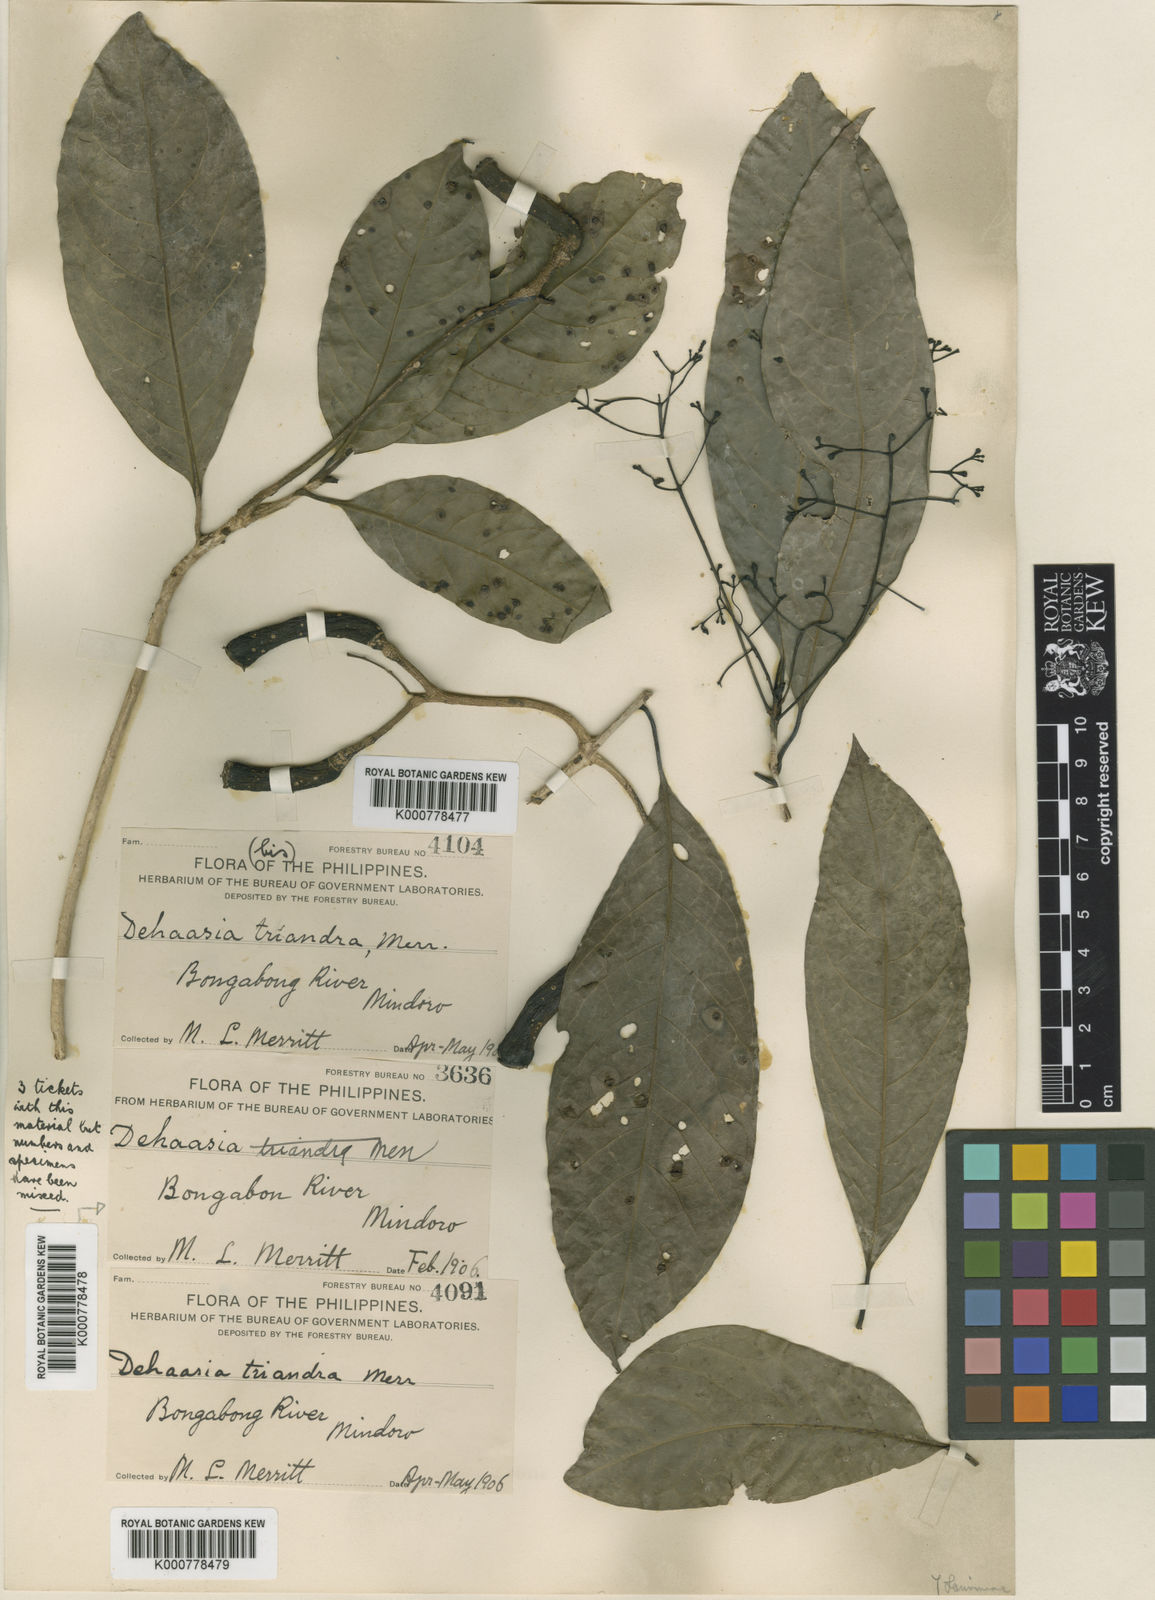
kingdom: Plantae
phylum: Tracheophyta
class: Magnoliopsida
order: Laurales
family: Lauraceae
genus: Dehaasia
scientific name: Dehaasia
